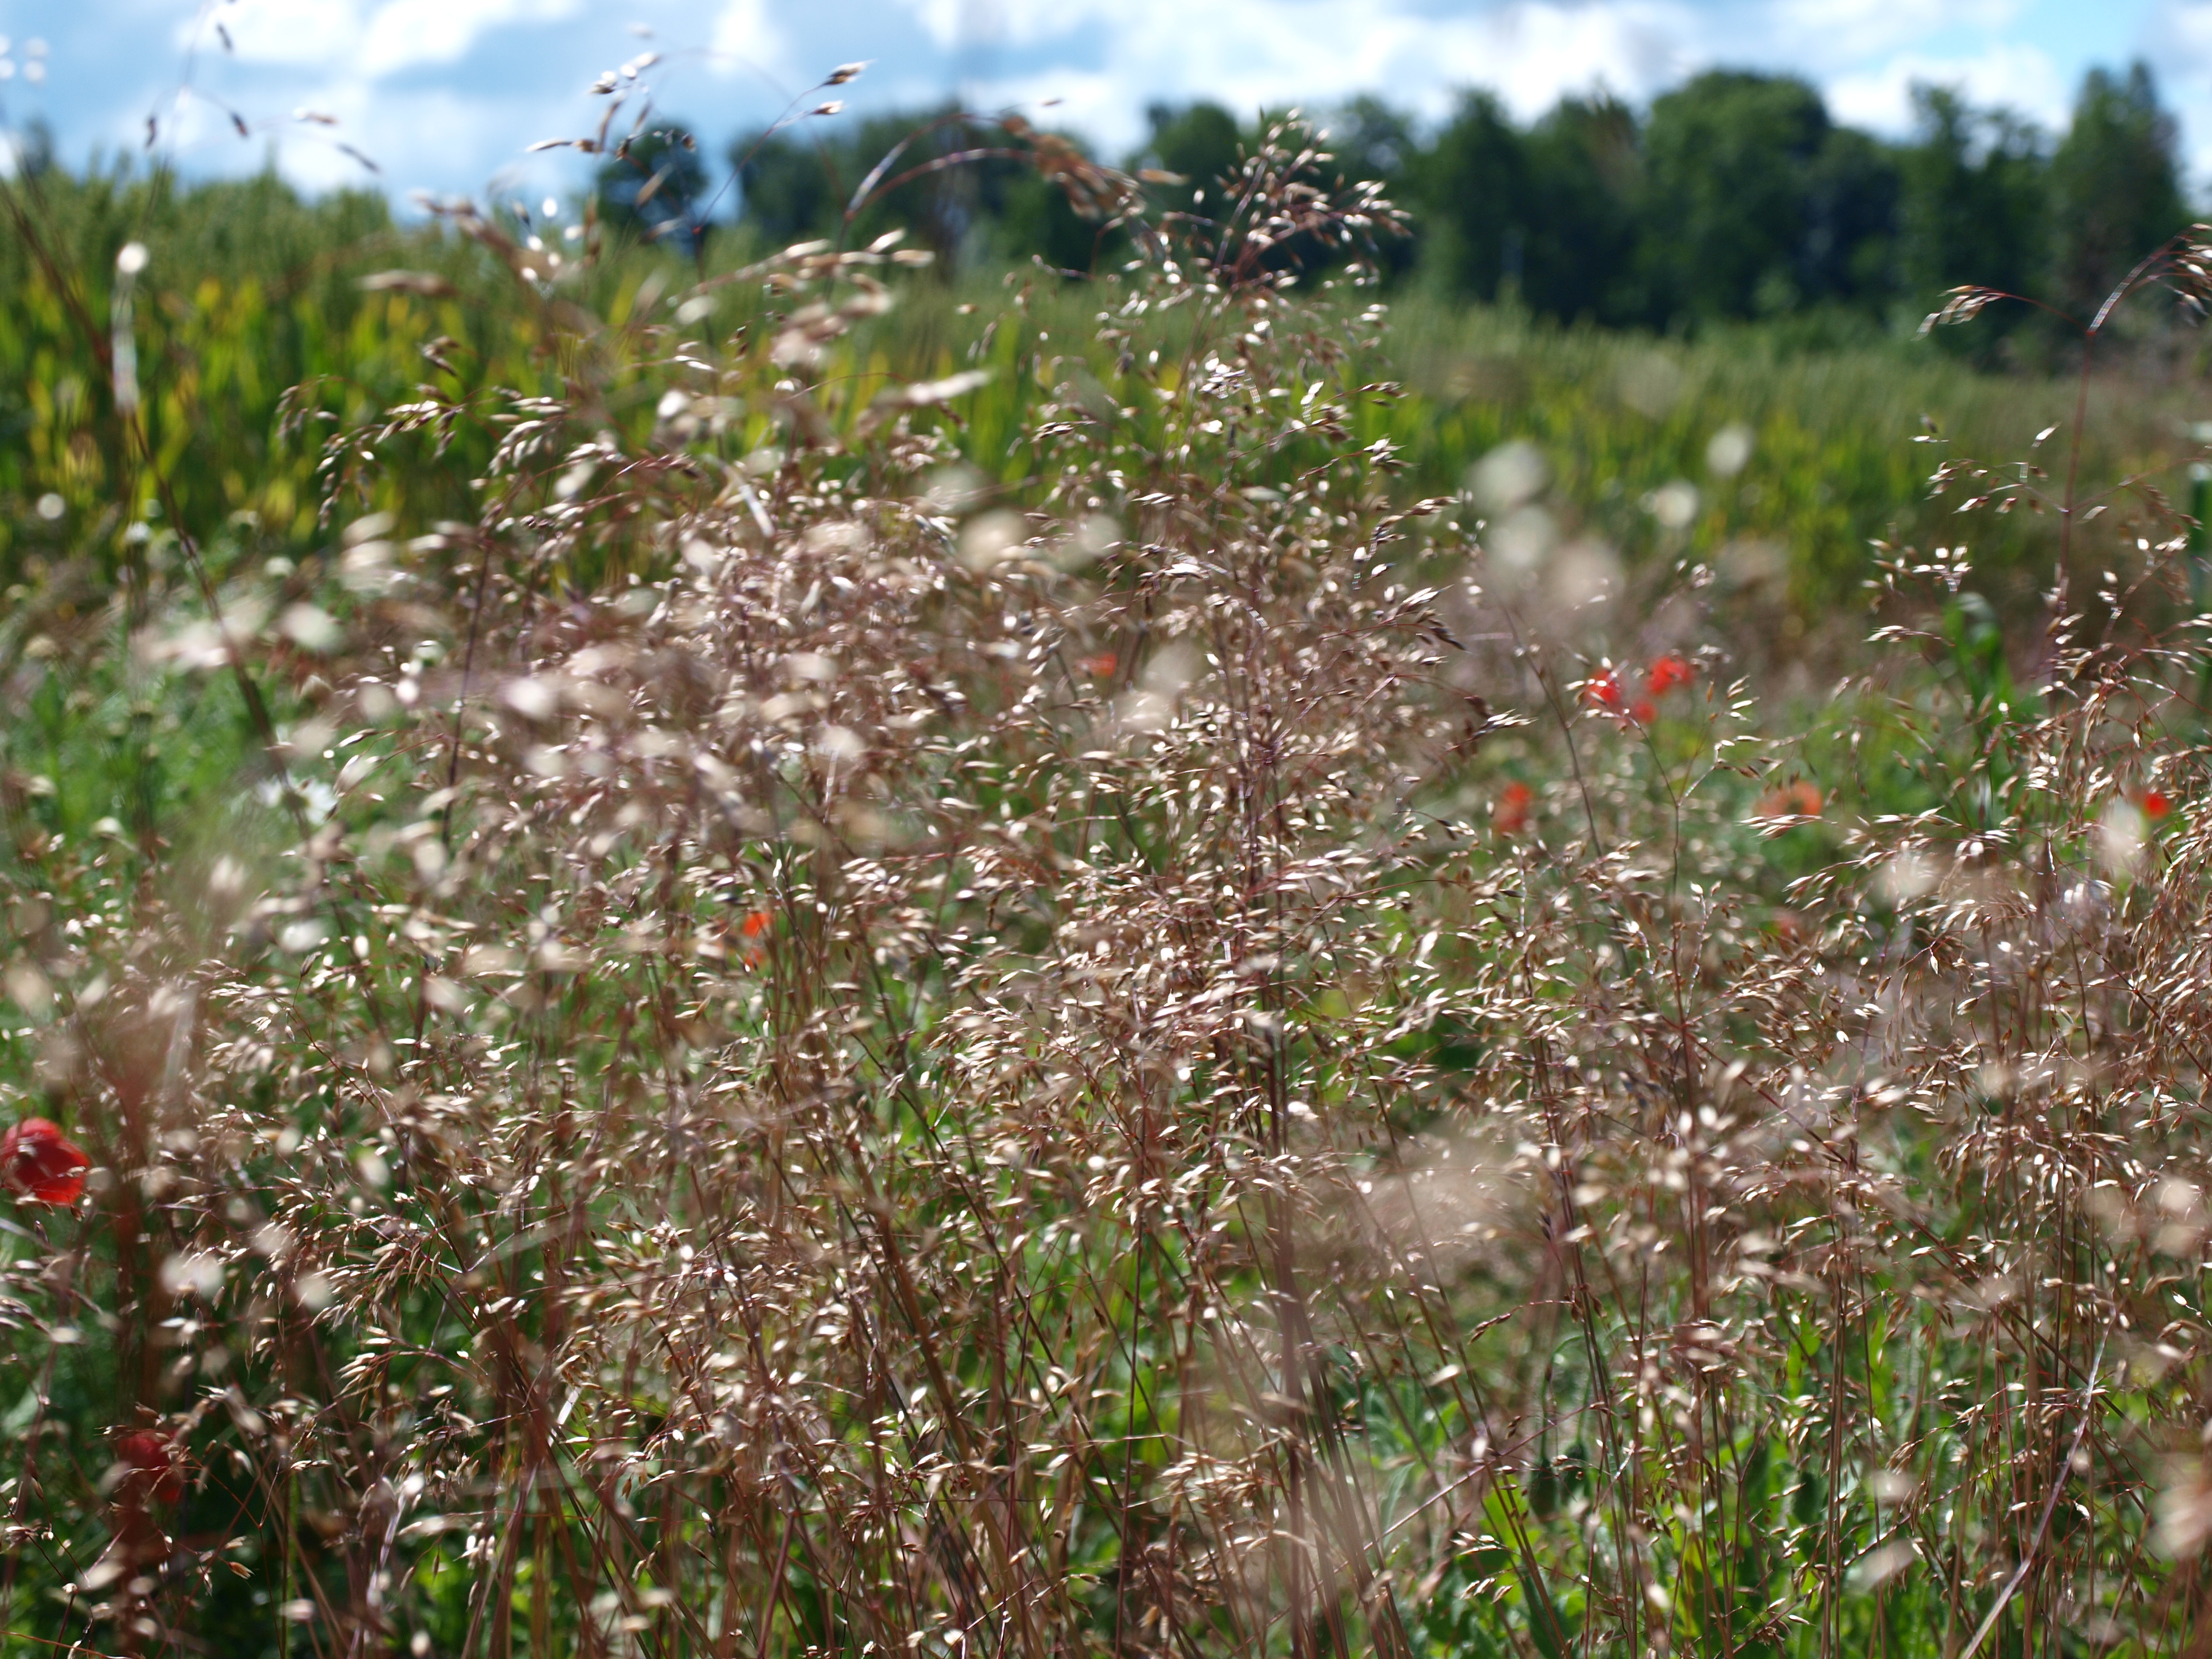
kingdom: Plantae
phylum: Tracheophyta
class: Liliopsida
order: Poales
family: Poaceae
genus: Avenella
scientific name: Avenella flexuosa
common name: Wavy hairgrass
